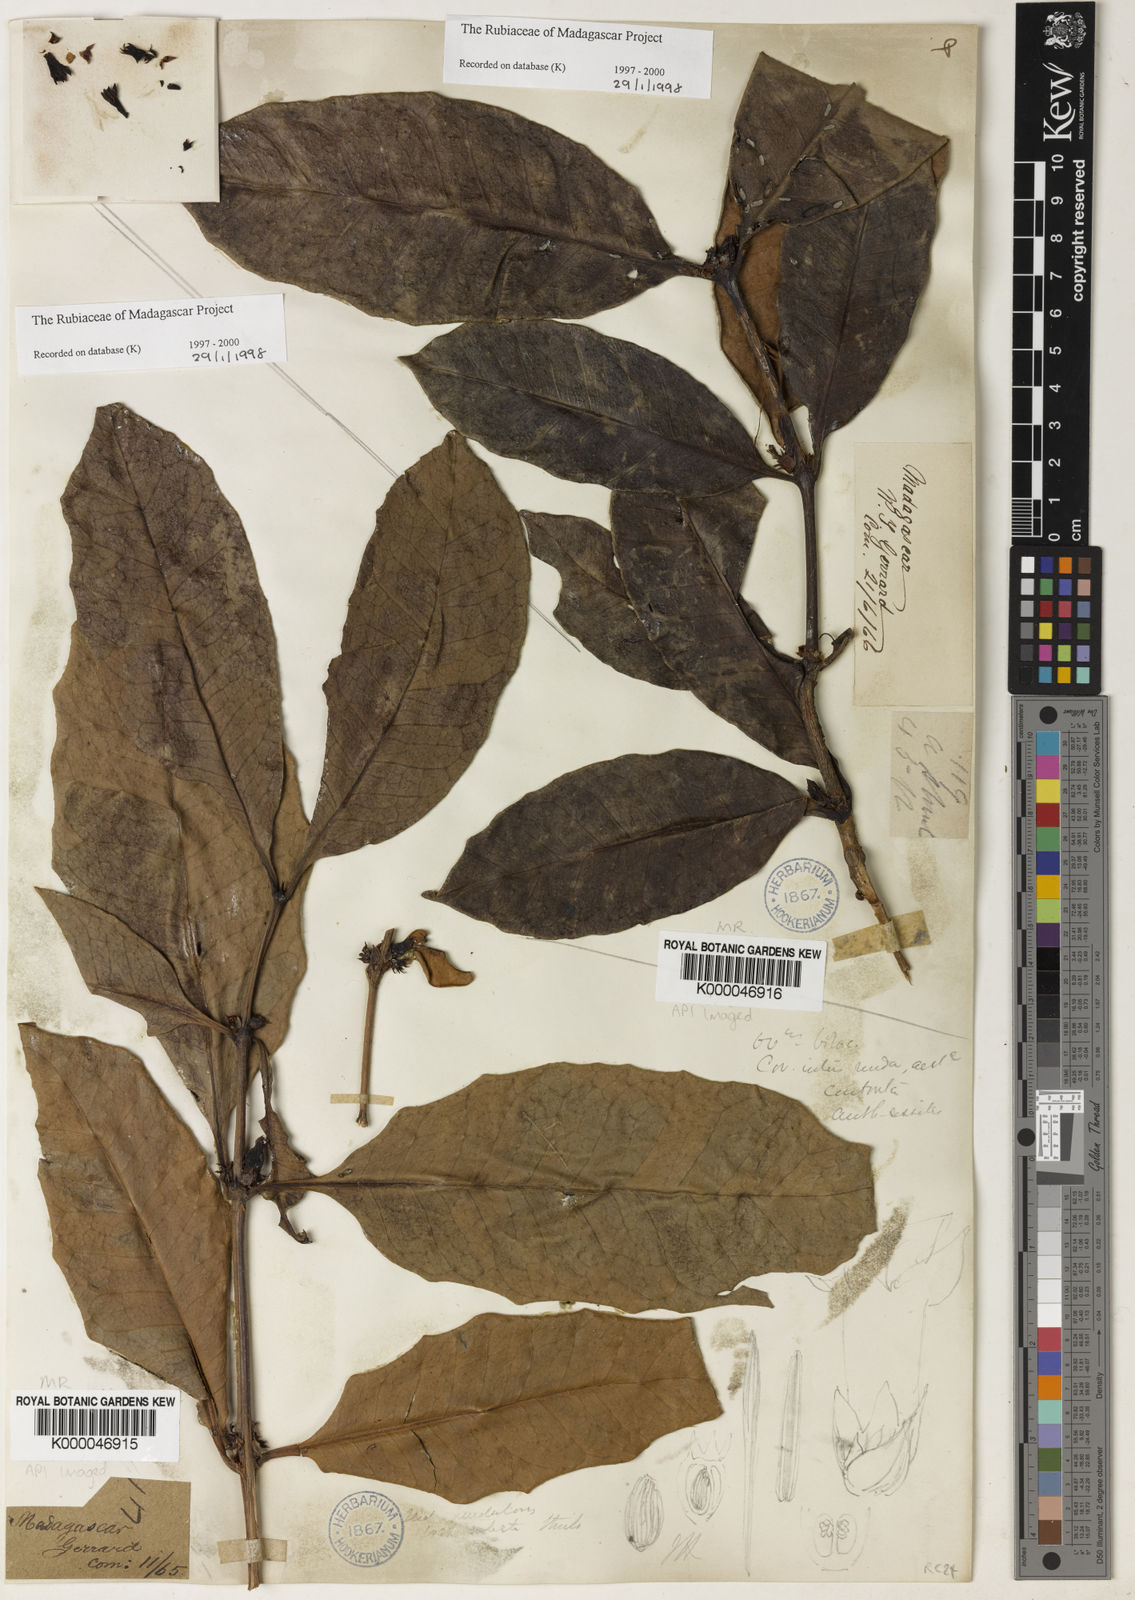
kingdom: Plantae
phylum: Tracheophyta
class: Magnoliopsida
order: Gentianales
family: Rubiaceae
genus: Chapelieria
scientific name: Chapelieria madagascariensis
